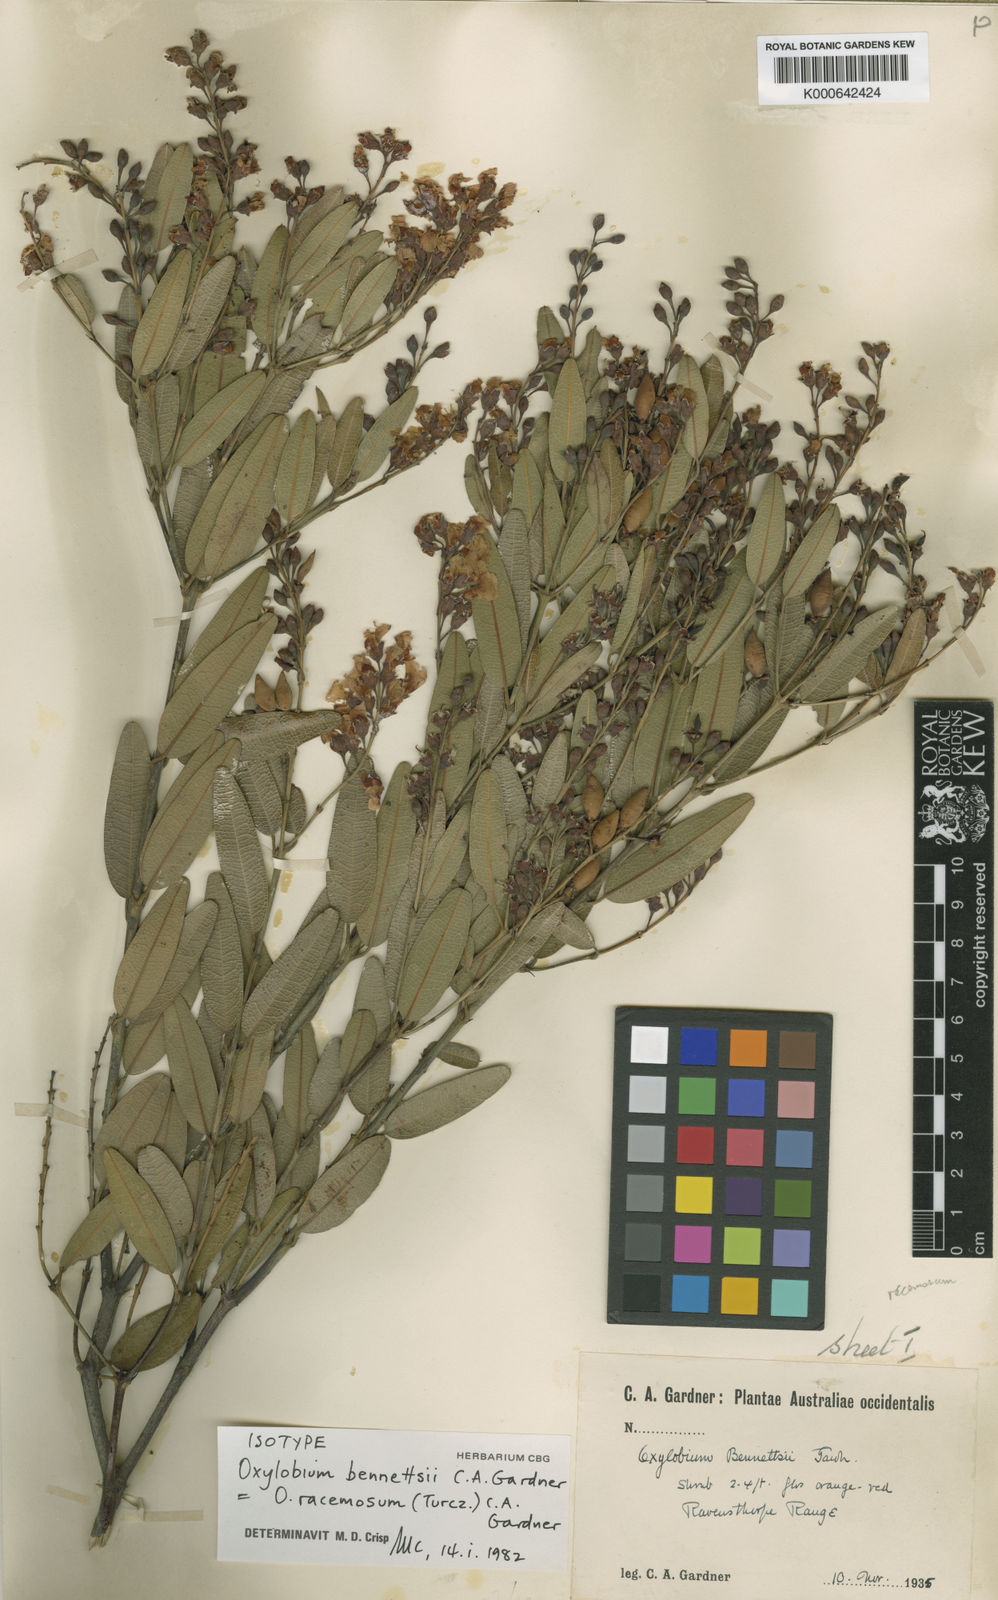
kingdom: Plantae
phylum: Tracheophyta
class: Magnoliopsida
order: Fabales
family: Fabaceae
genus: Gastrolobium
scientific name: Gastrolobium racemosum
